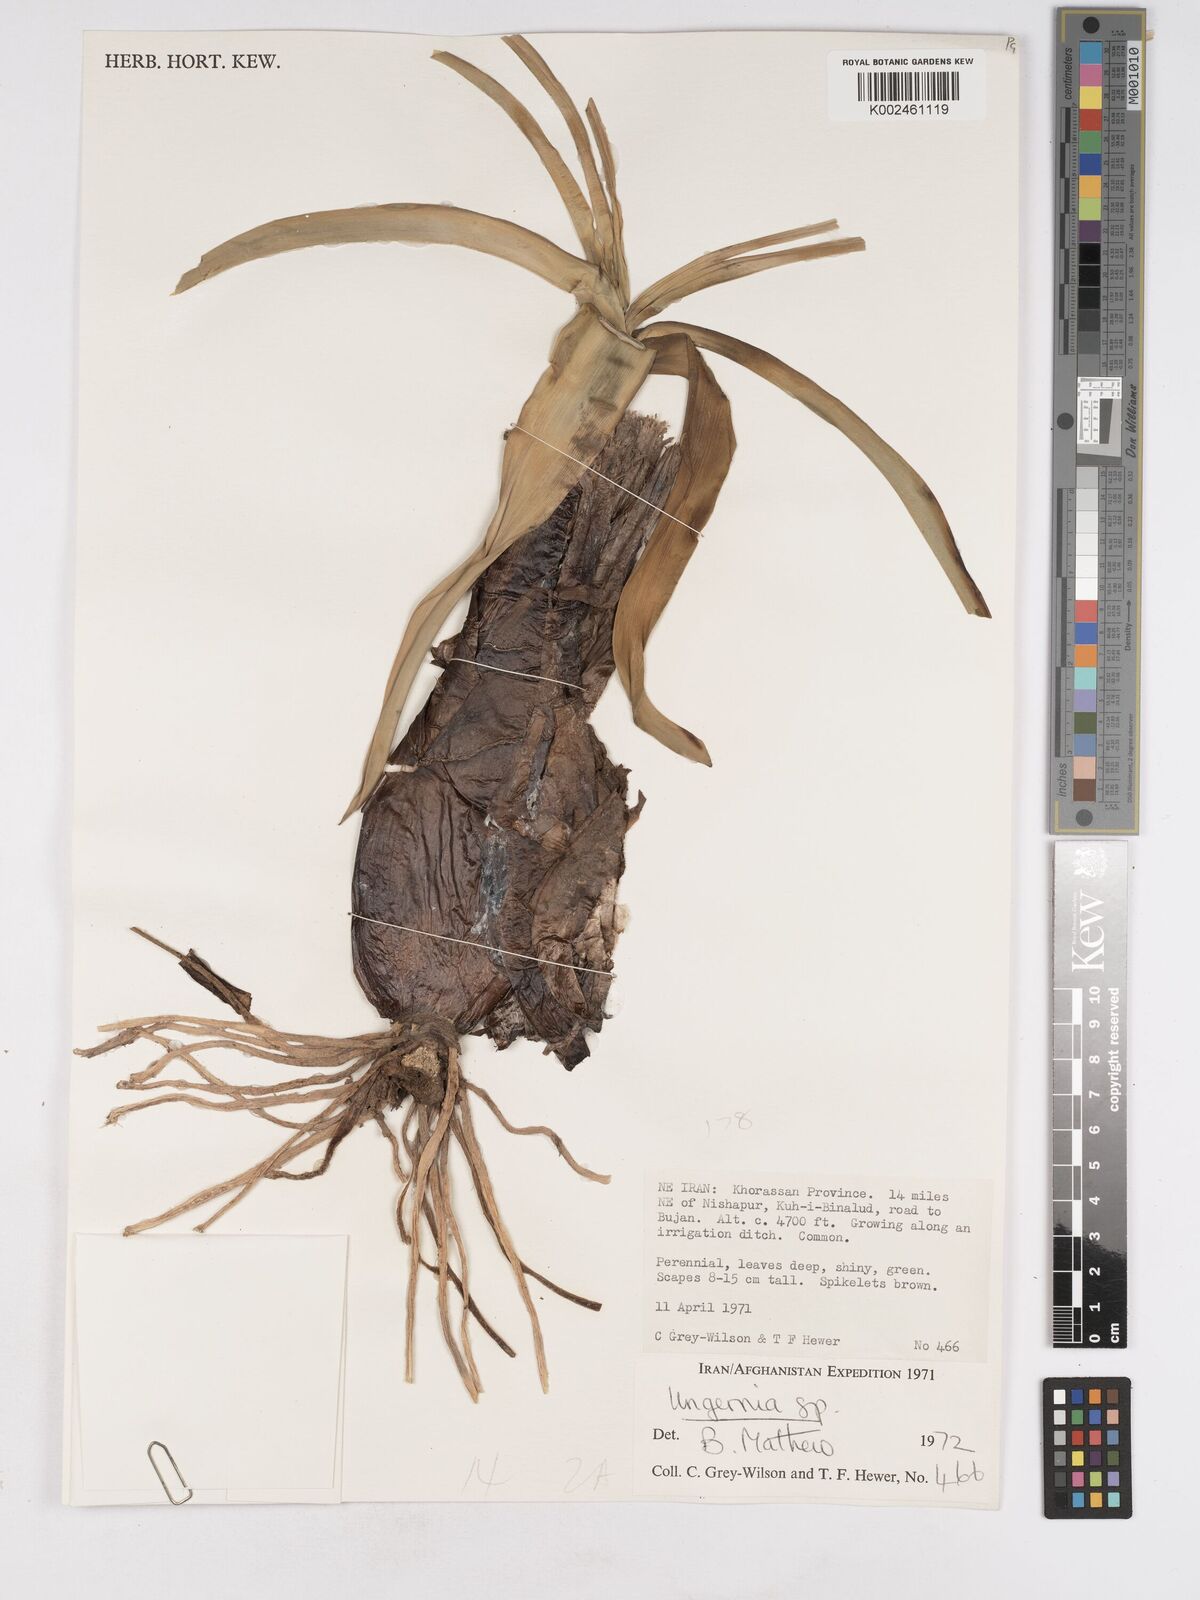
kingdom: Plantae
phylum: Tracheophyta
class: Liliopsida
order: Asparagales
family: Amaryllidaceae
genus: Ungernia
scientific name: Ungernia
